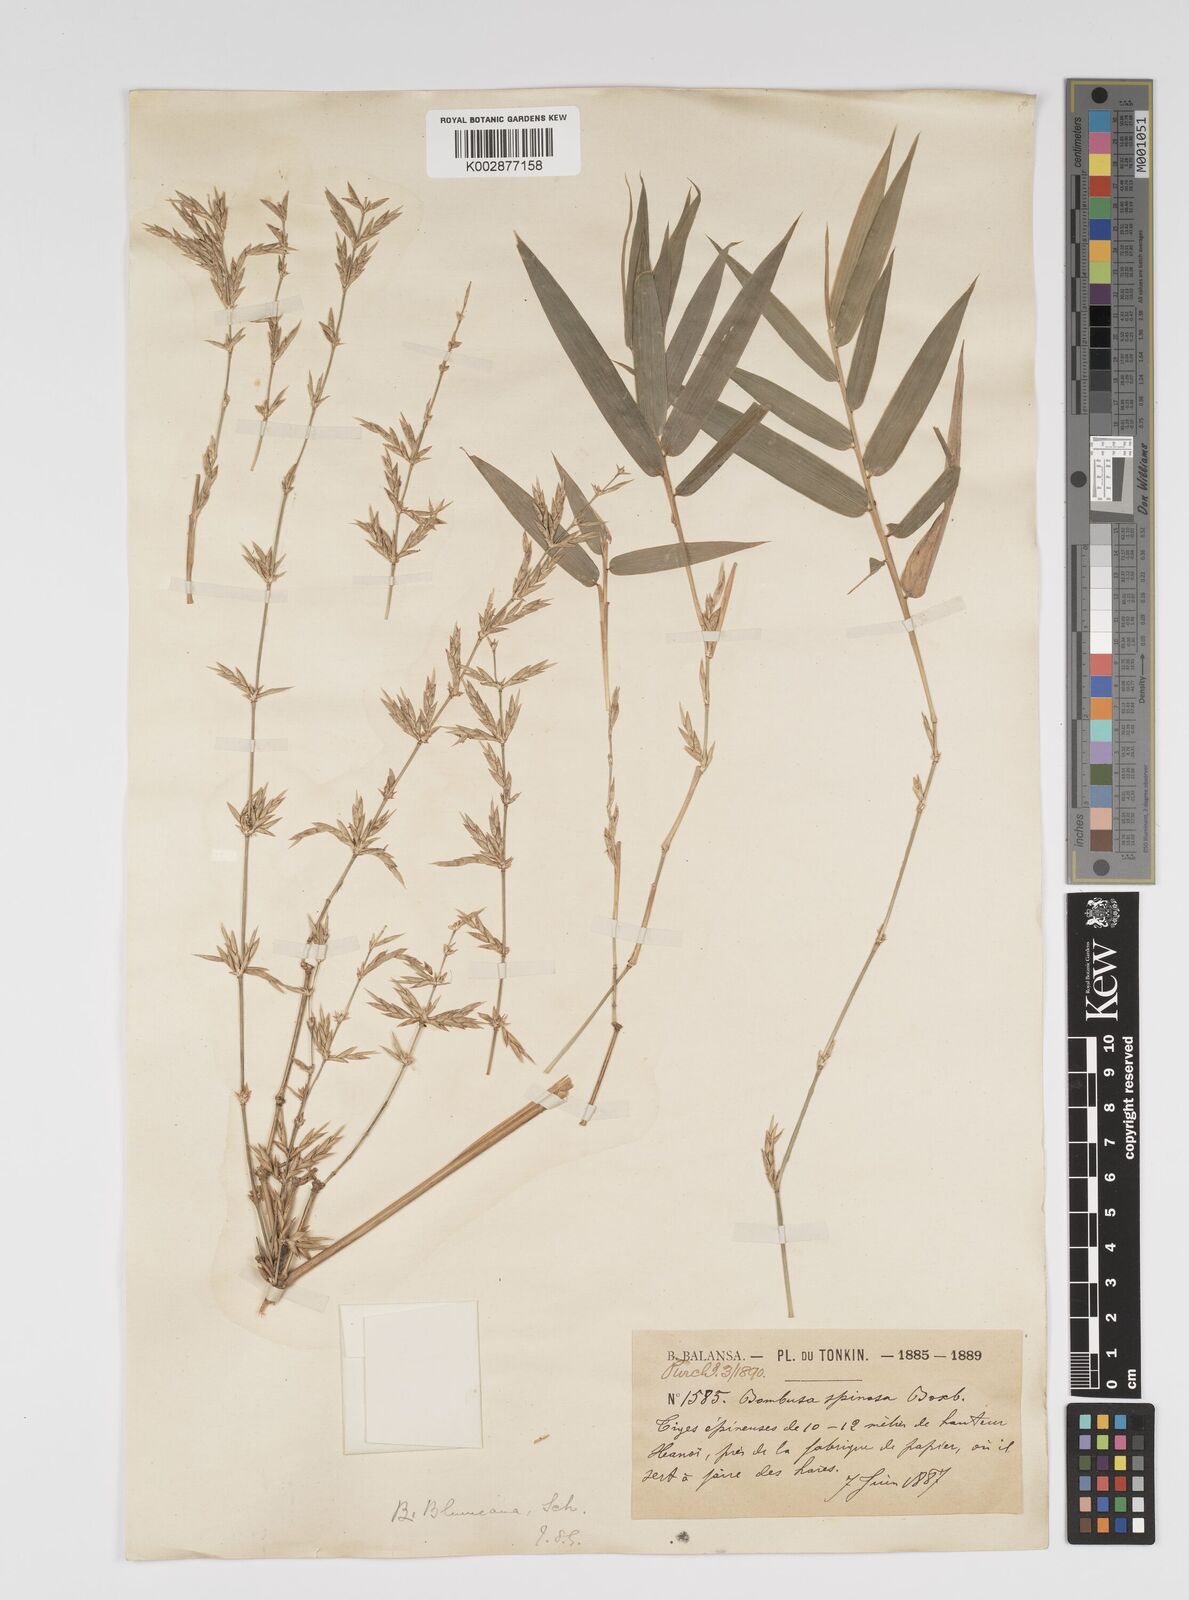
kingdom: Plantae
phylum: Tracheophyta
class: Liliopsida
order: Poales
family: Poaceae
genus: Bambusa
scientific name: Bambusa spinosa
